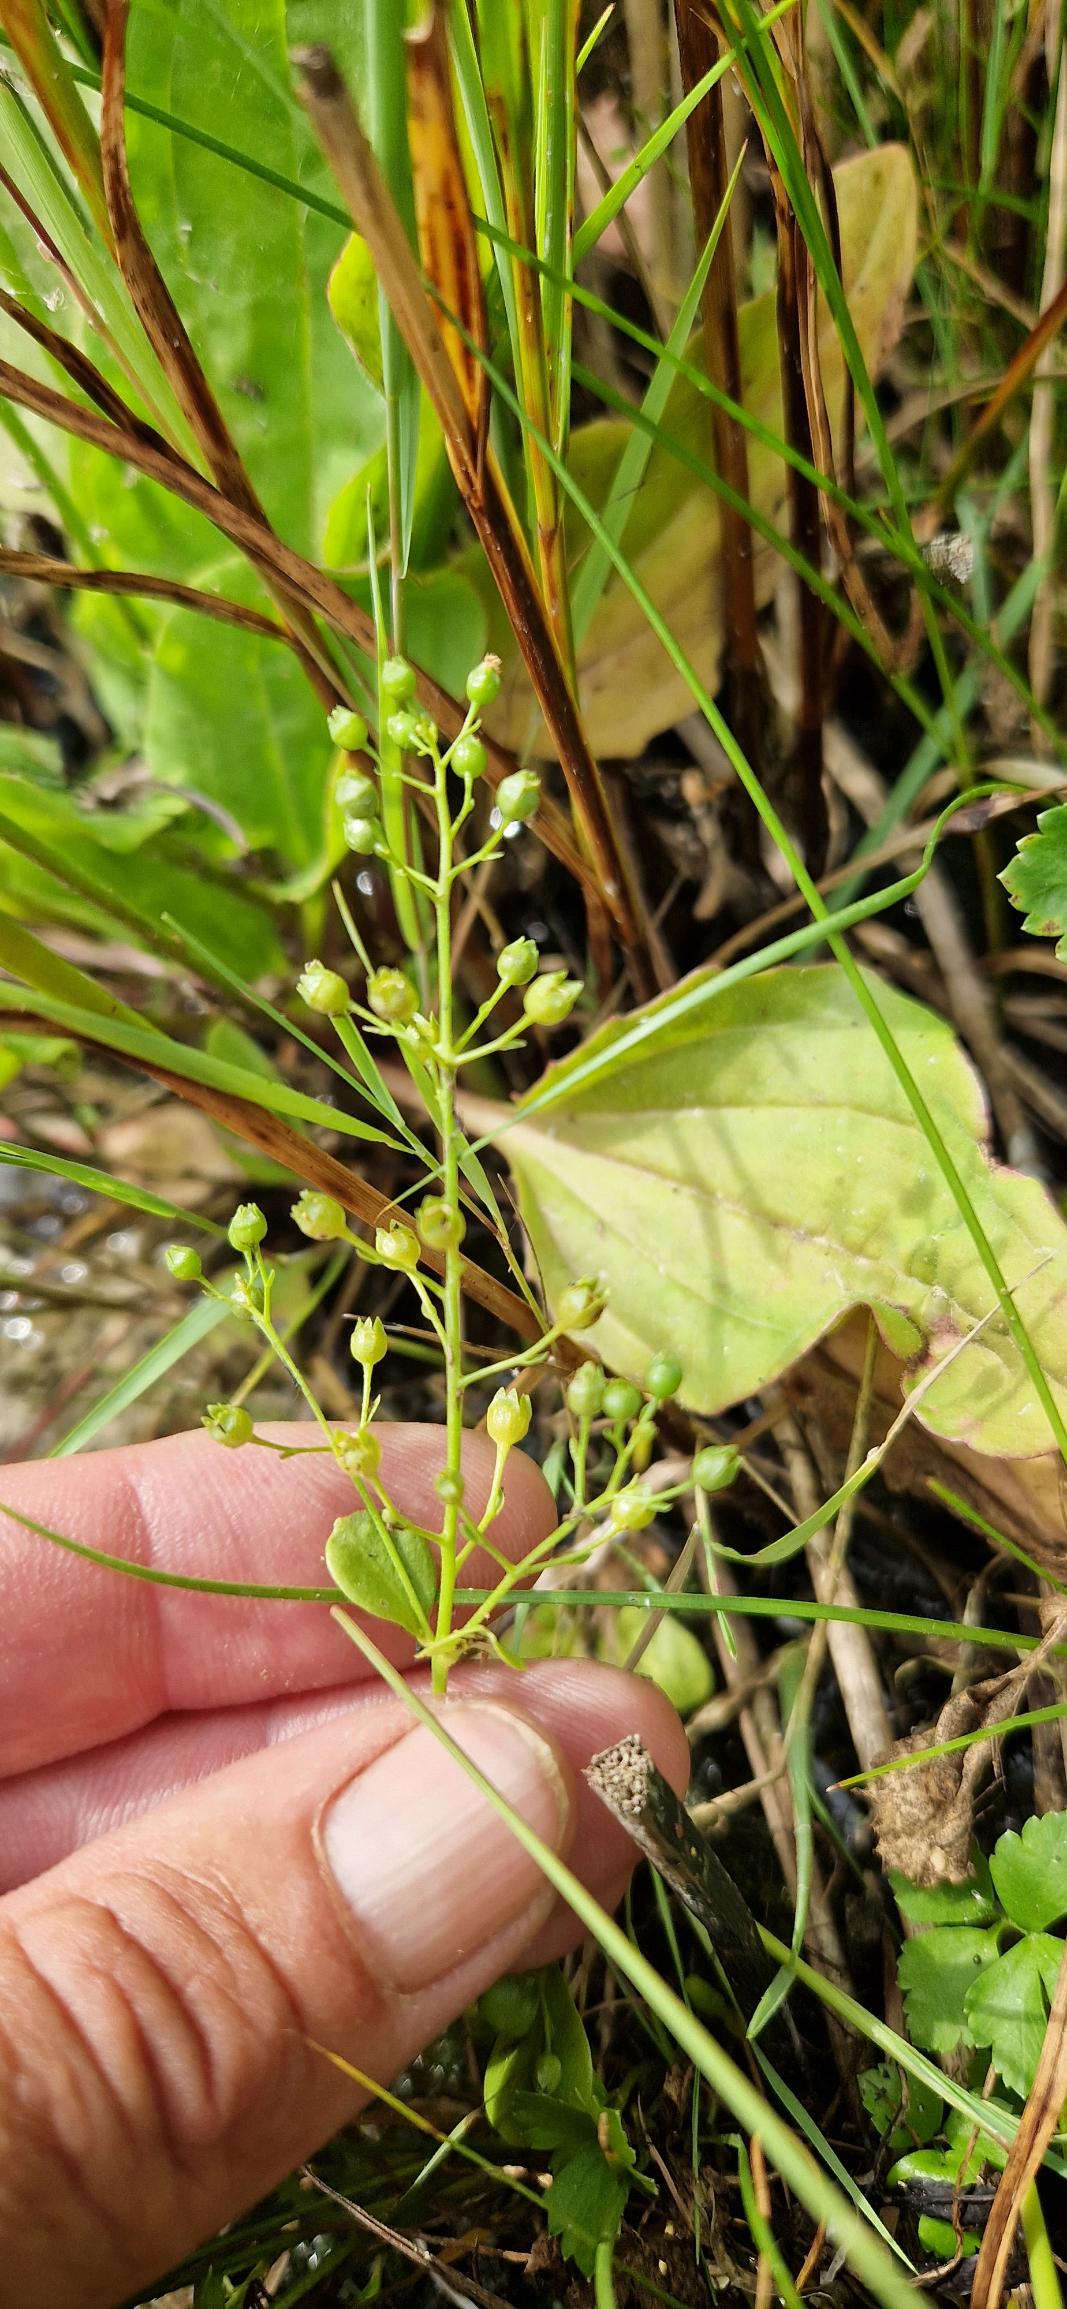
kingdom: Plantae
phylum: Tracheophyta
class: Magnoliopsida
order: Ericales
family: Primulaceae
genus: Samolus
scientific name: Samolus valerandi
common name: Samel
